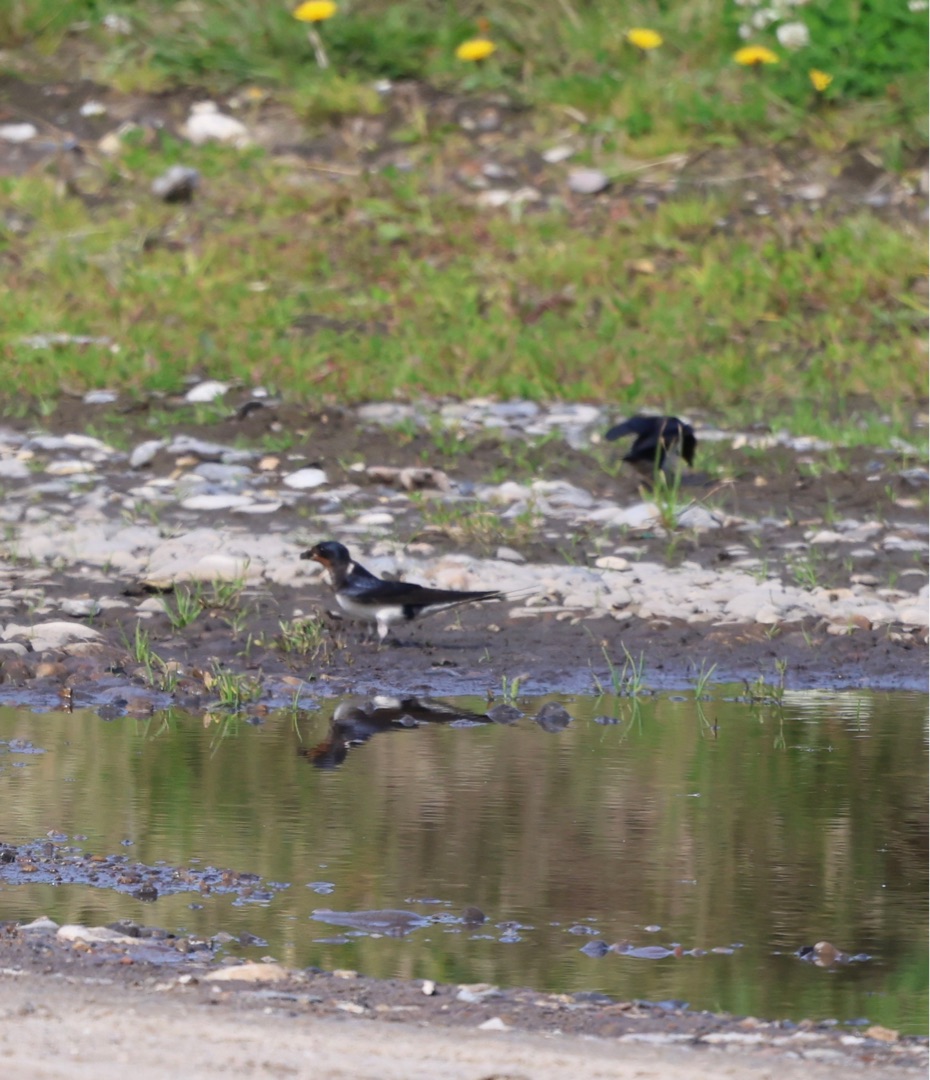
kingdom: Animalia
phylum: Chordata
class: Aves
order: Passeriformes
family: Hirundinidae
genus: Hirundo
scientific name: Hirundo rustica
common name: Landsvale
